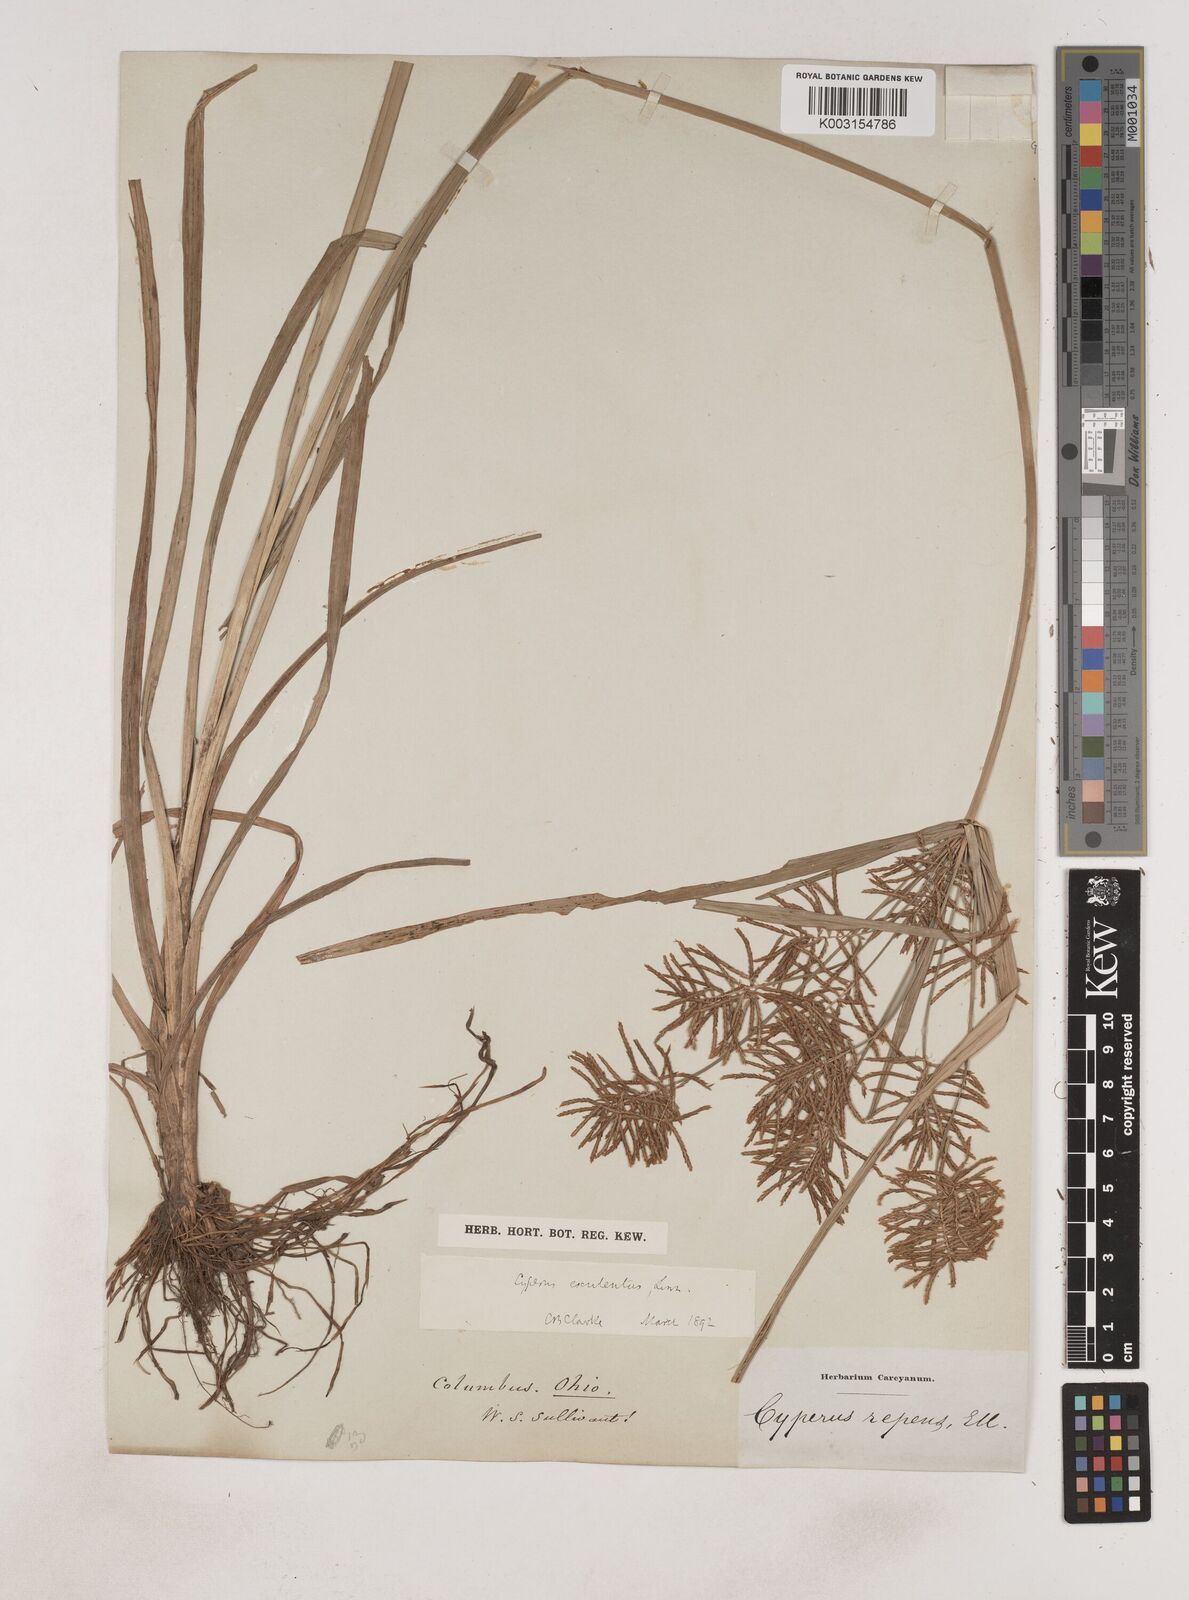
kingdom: Plantae
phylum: Tracheophyta
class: Liliopsida
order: Poales
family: Cyperaceae
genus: Cyperus
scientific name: Cyperus esculentus
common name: Yellow nutsedge
